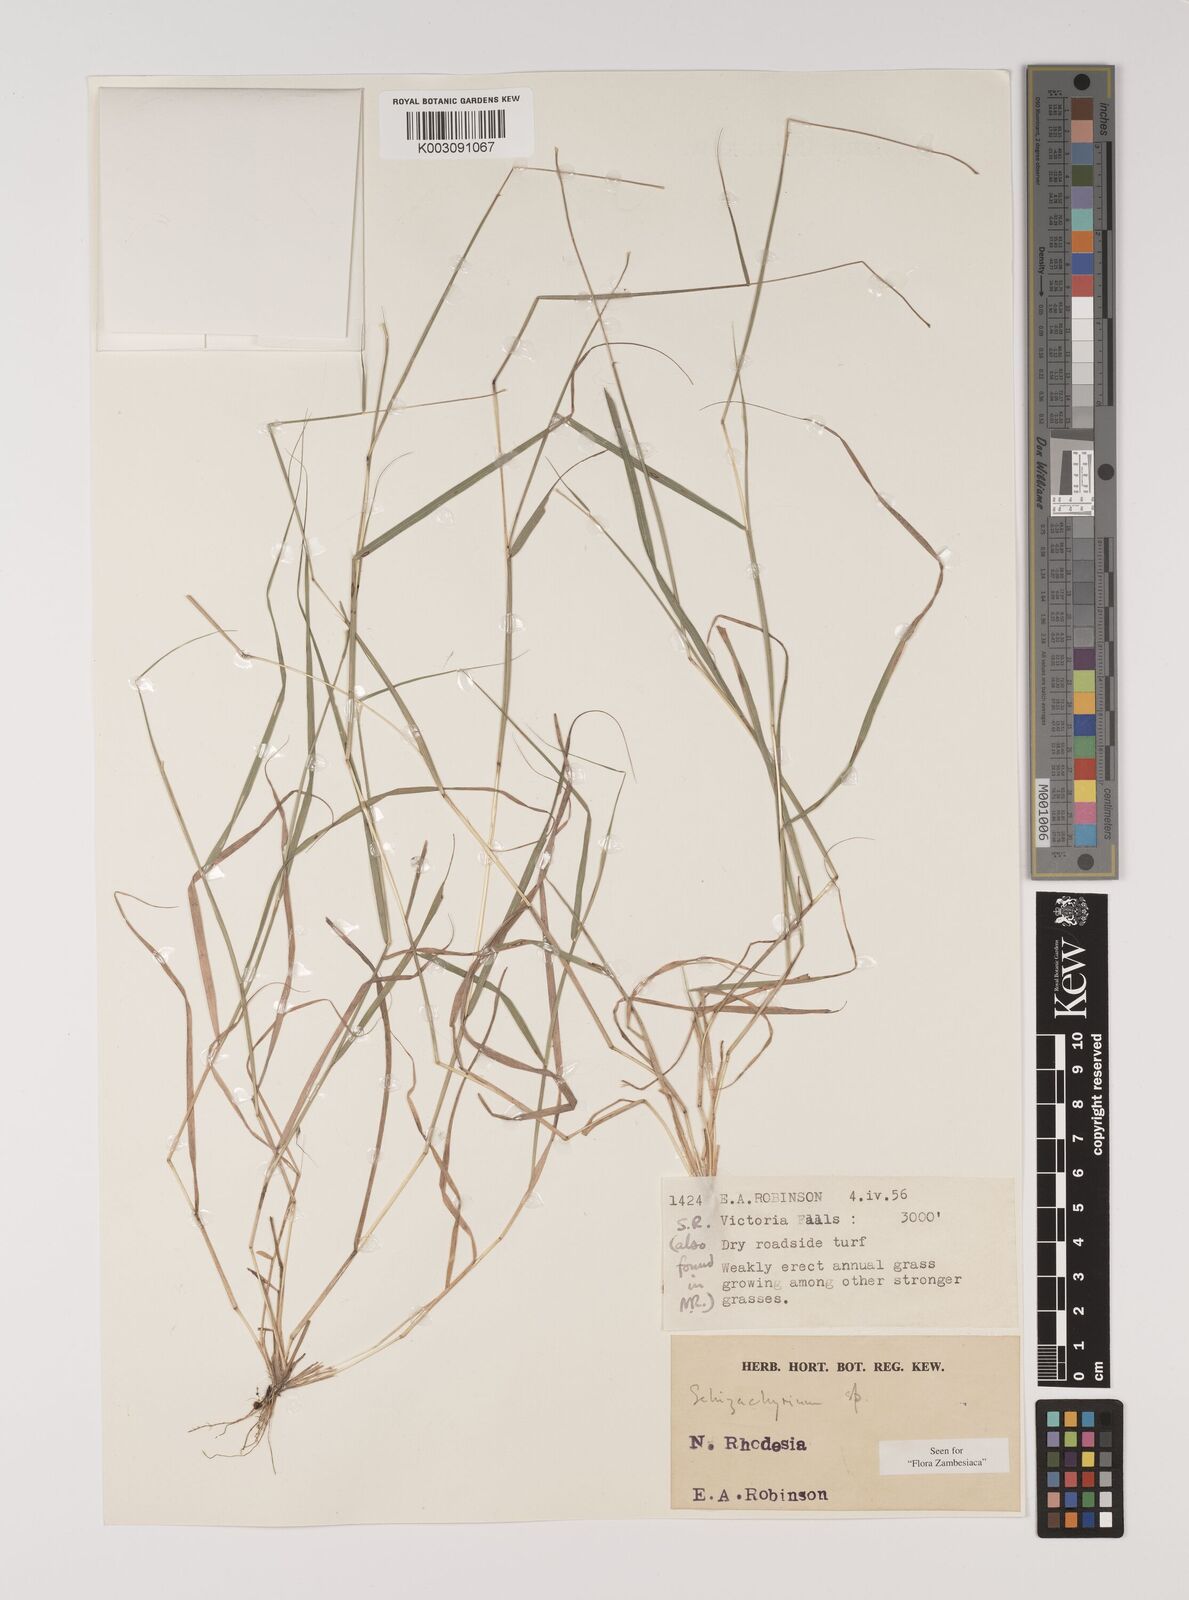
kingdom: Plantae
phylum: Tracheophyta
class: Liliopsida
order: Poales
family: Poaceae
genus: Sehima
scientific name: Sehima ischaemoides
